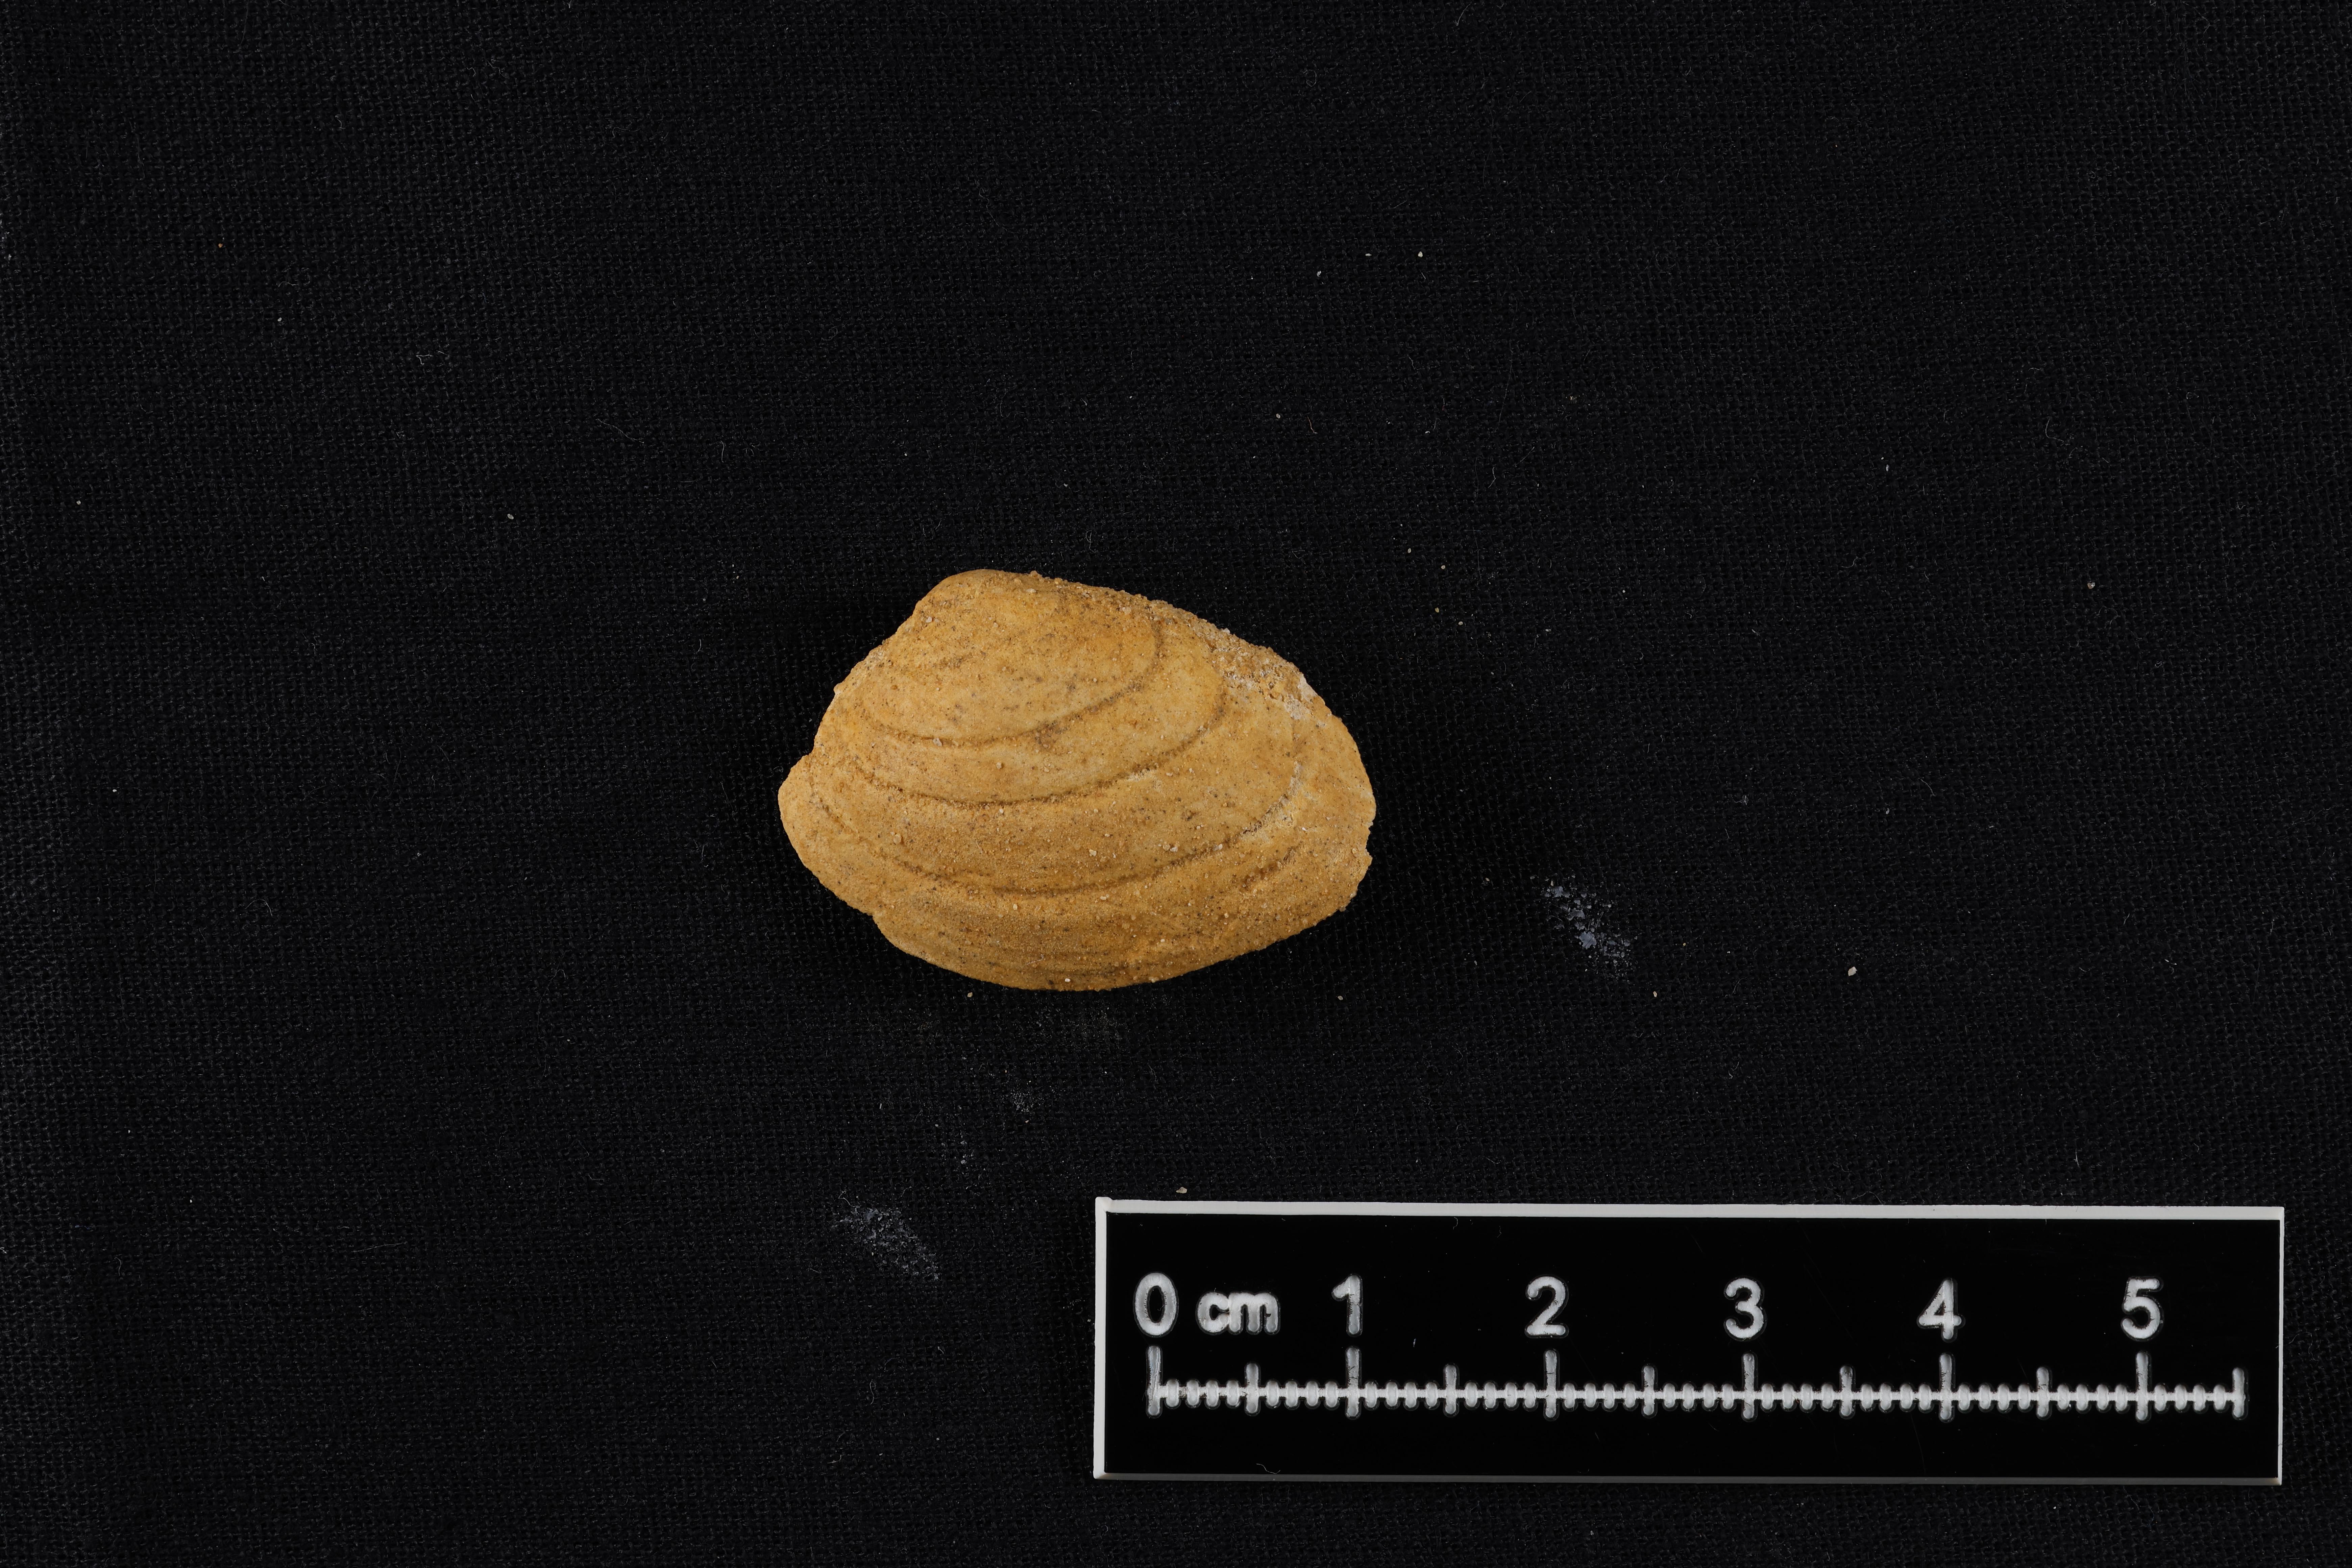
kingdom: Animalia
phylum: Mollusca
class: Bivalvia
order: Carditida
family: Cardiniidae
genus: Cardinia
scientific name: Cardinia
